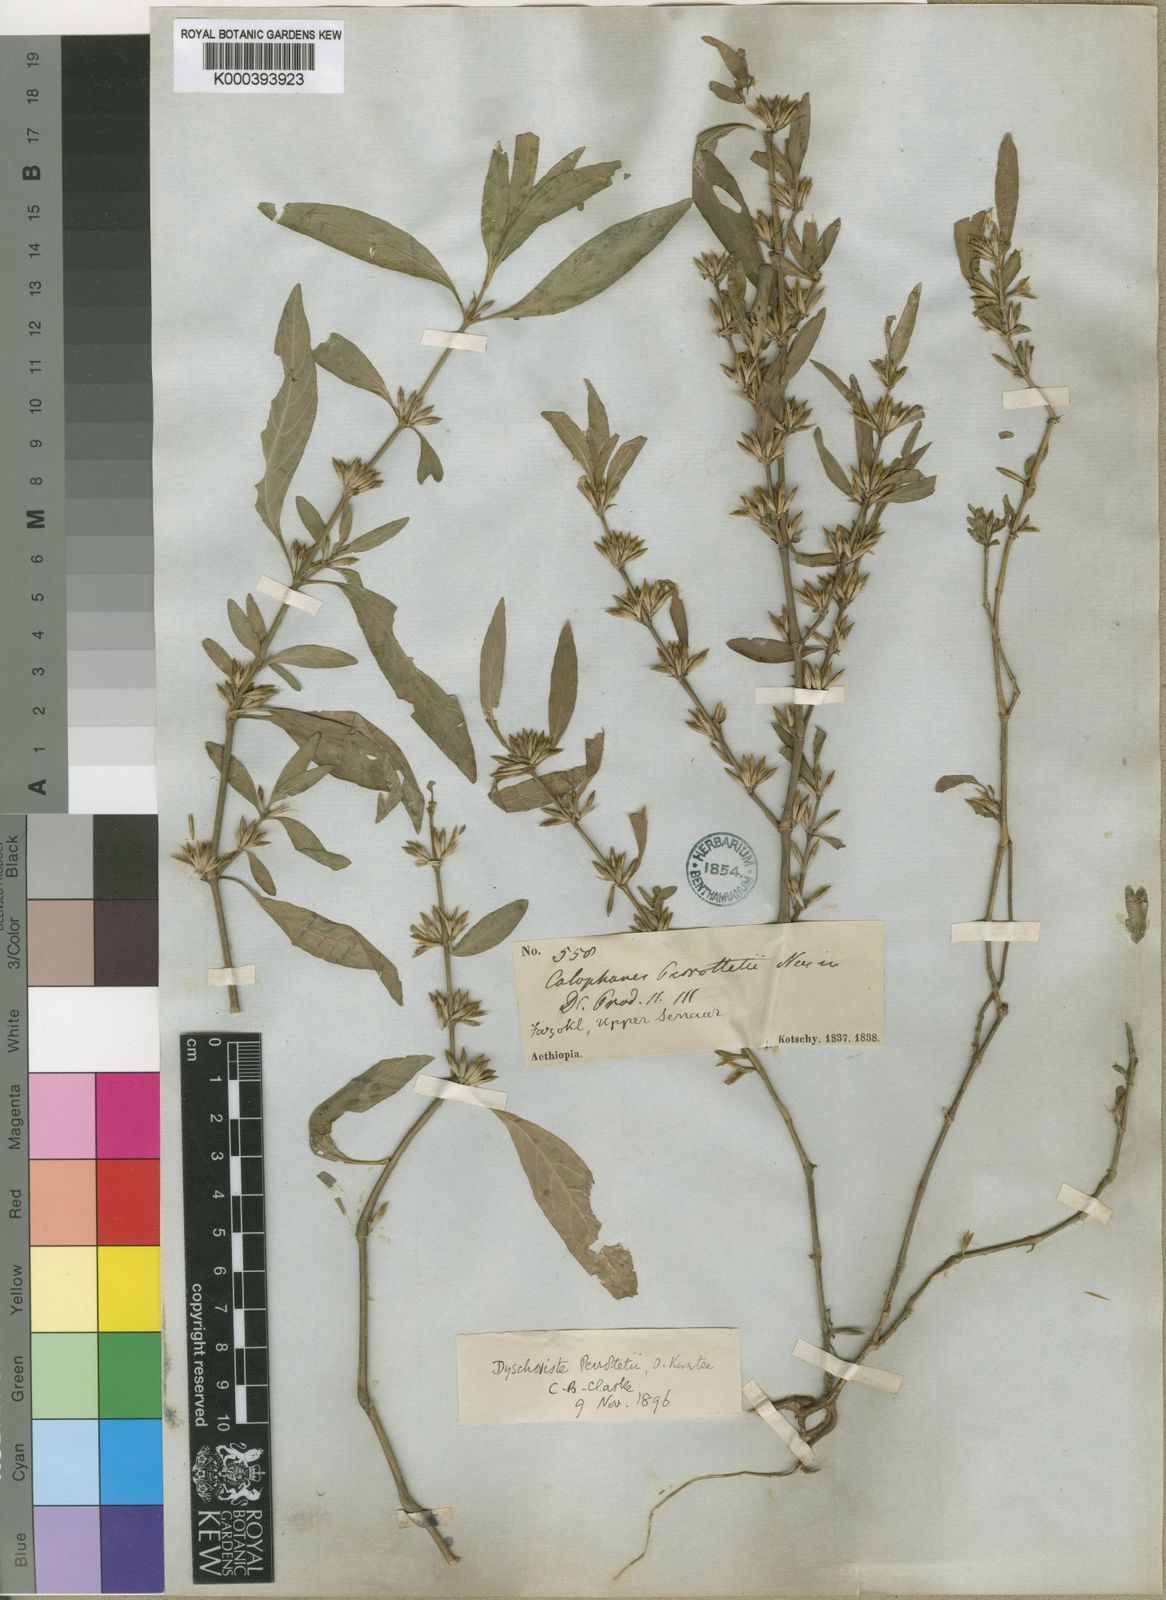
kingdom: Plantae
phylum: Tracheophyta
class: Magnoliopsida
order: Lamiales
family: Acanthaceae
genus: Dyschoriste
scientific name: Dyschoriste nagchana
